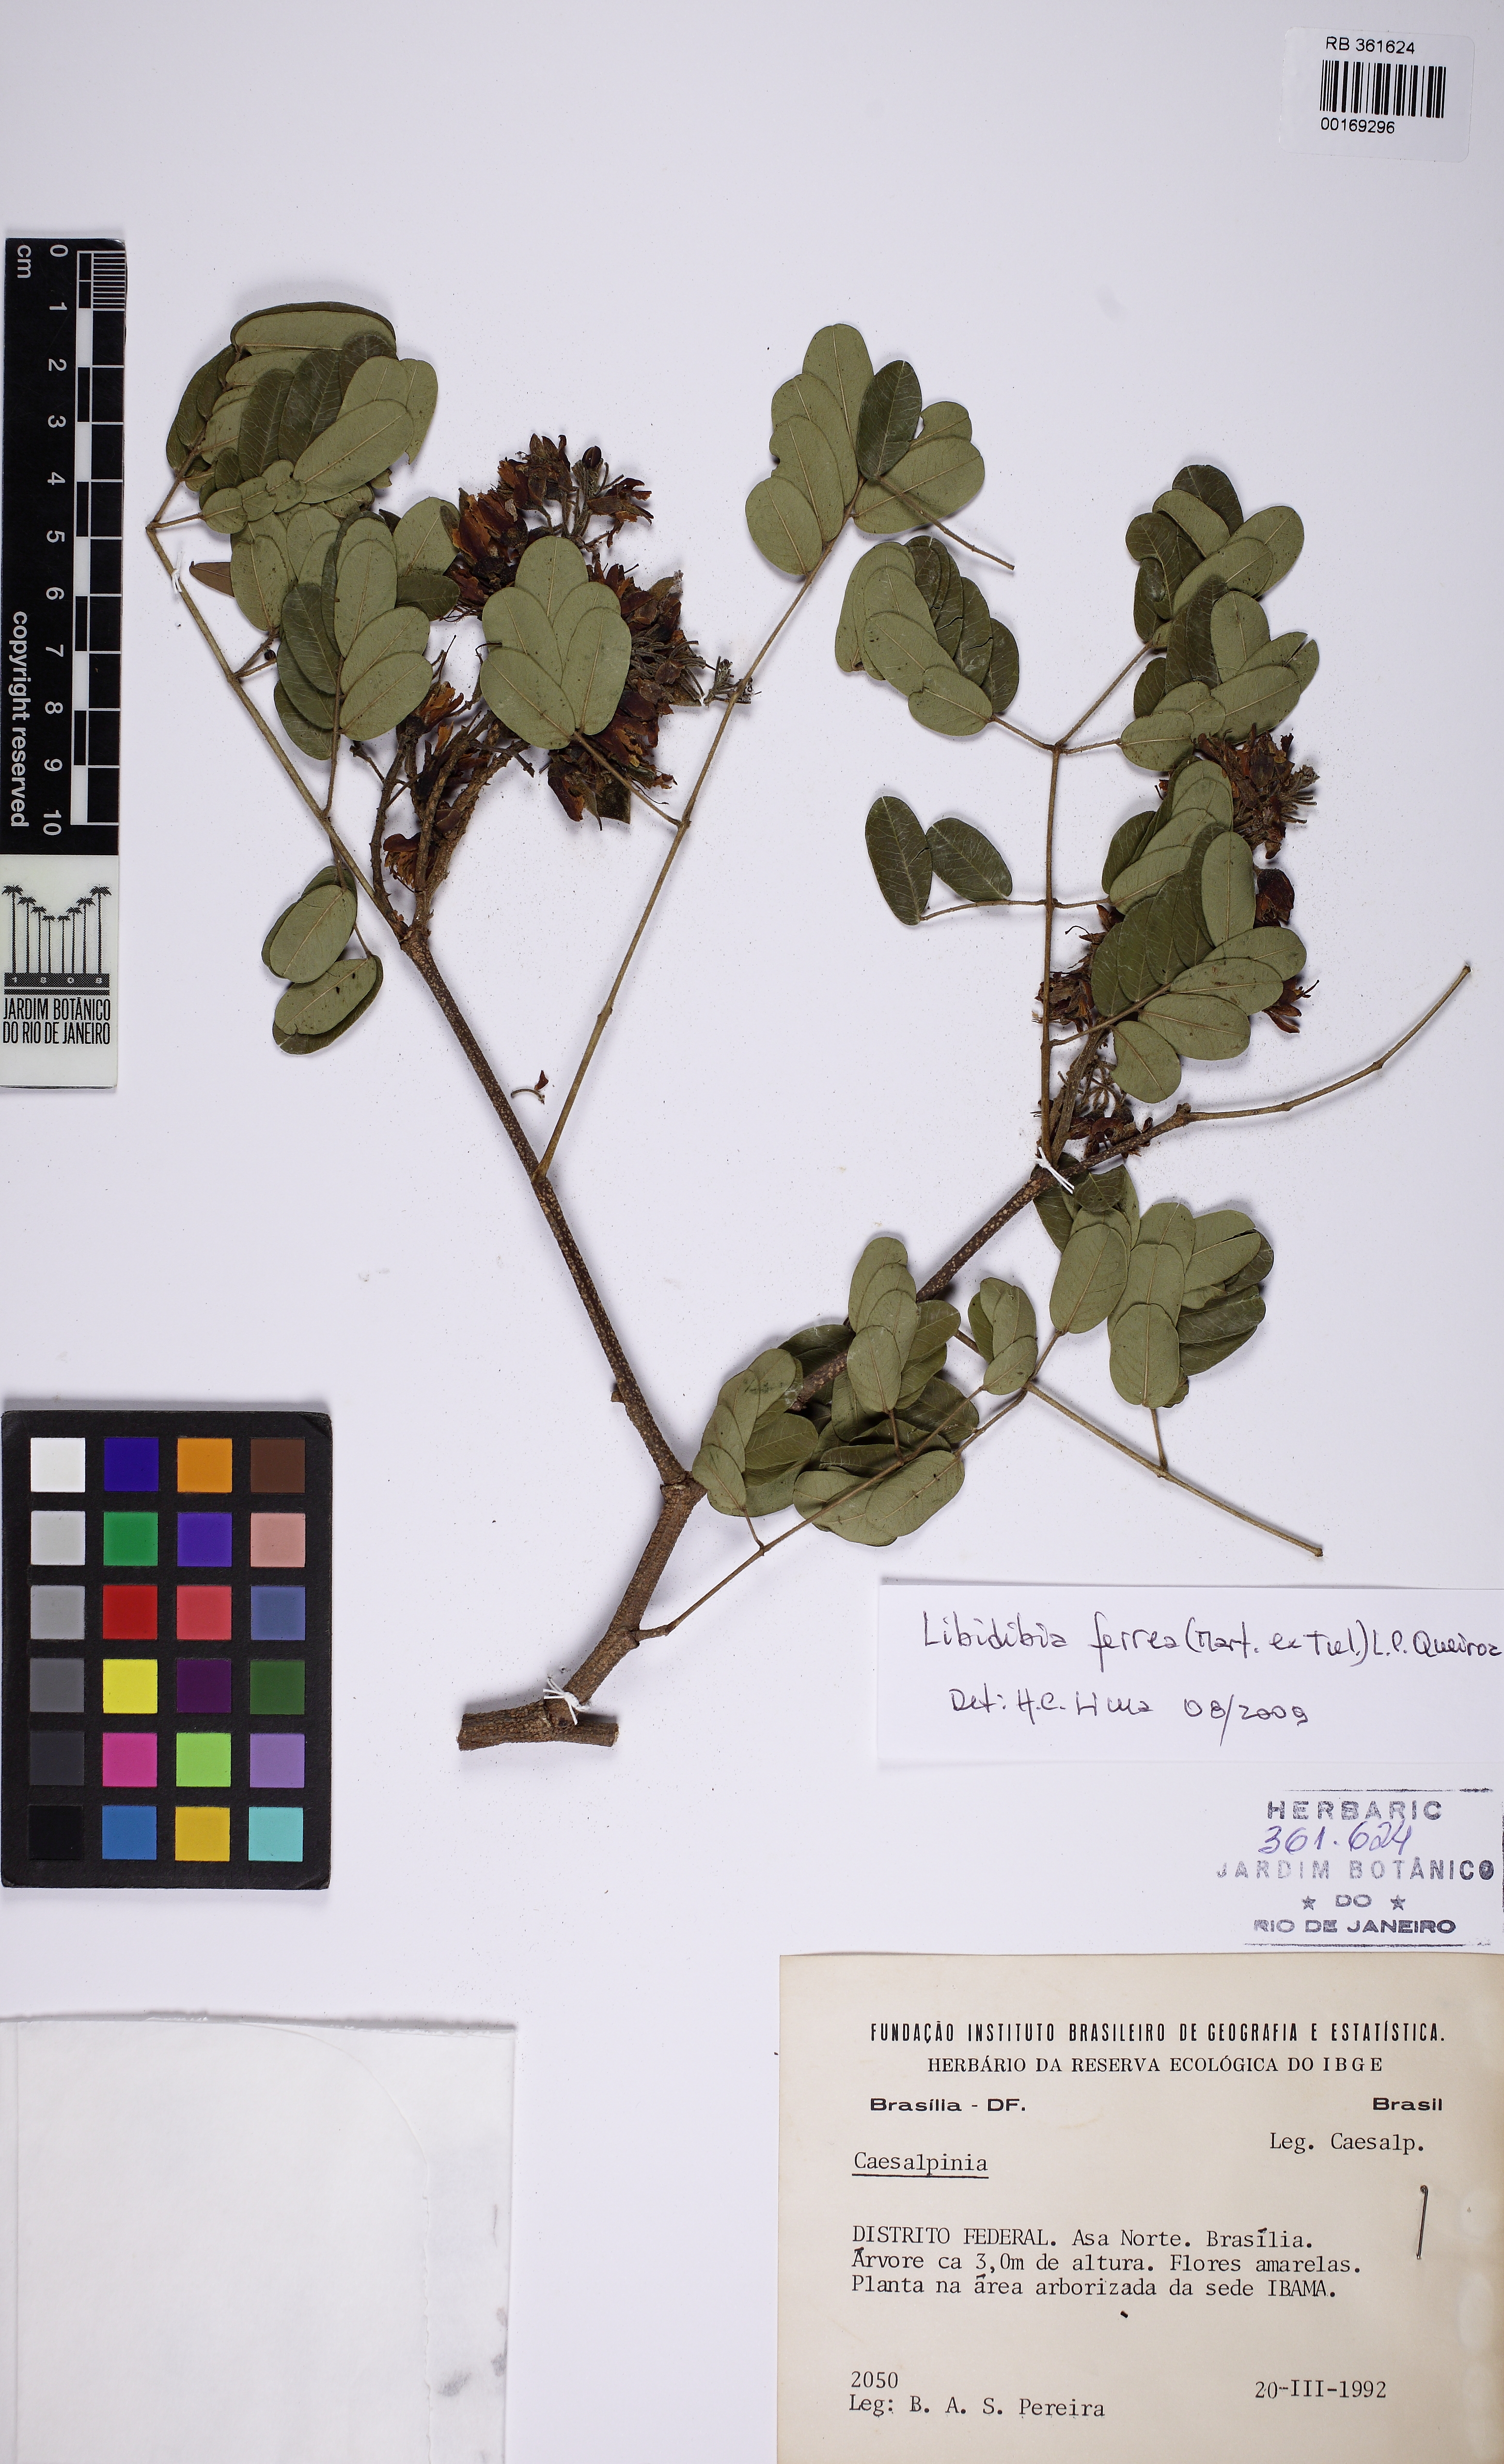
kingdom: Plantae
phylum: Tracheophyta
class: Magnoliopsida
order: Fabales
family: Fabaceae
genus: Libidibia
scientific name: Libidibia ferrea
